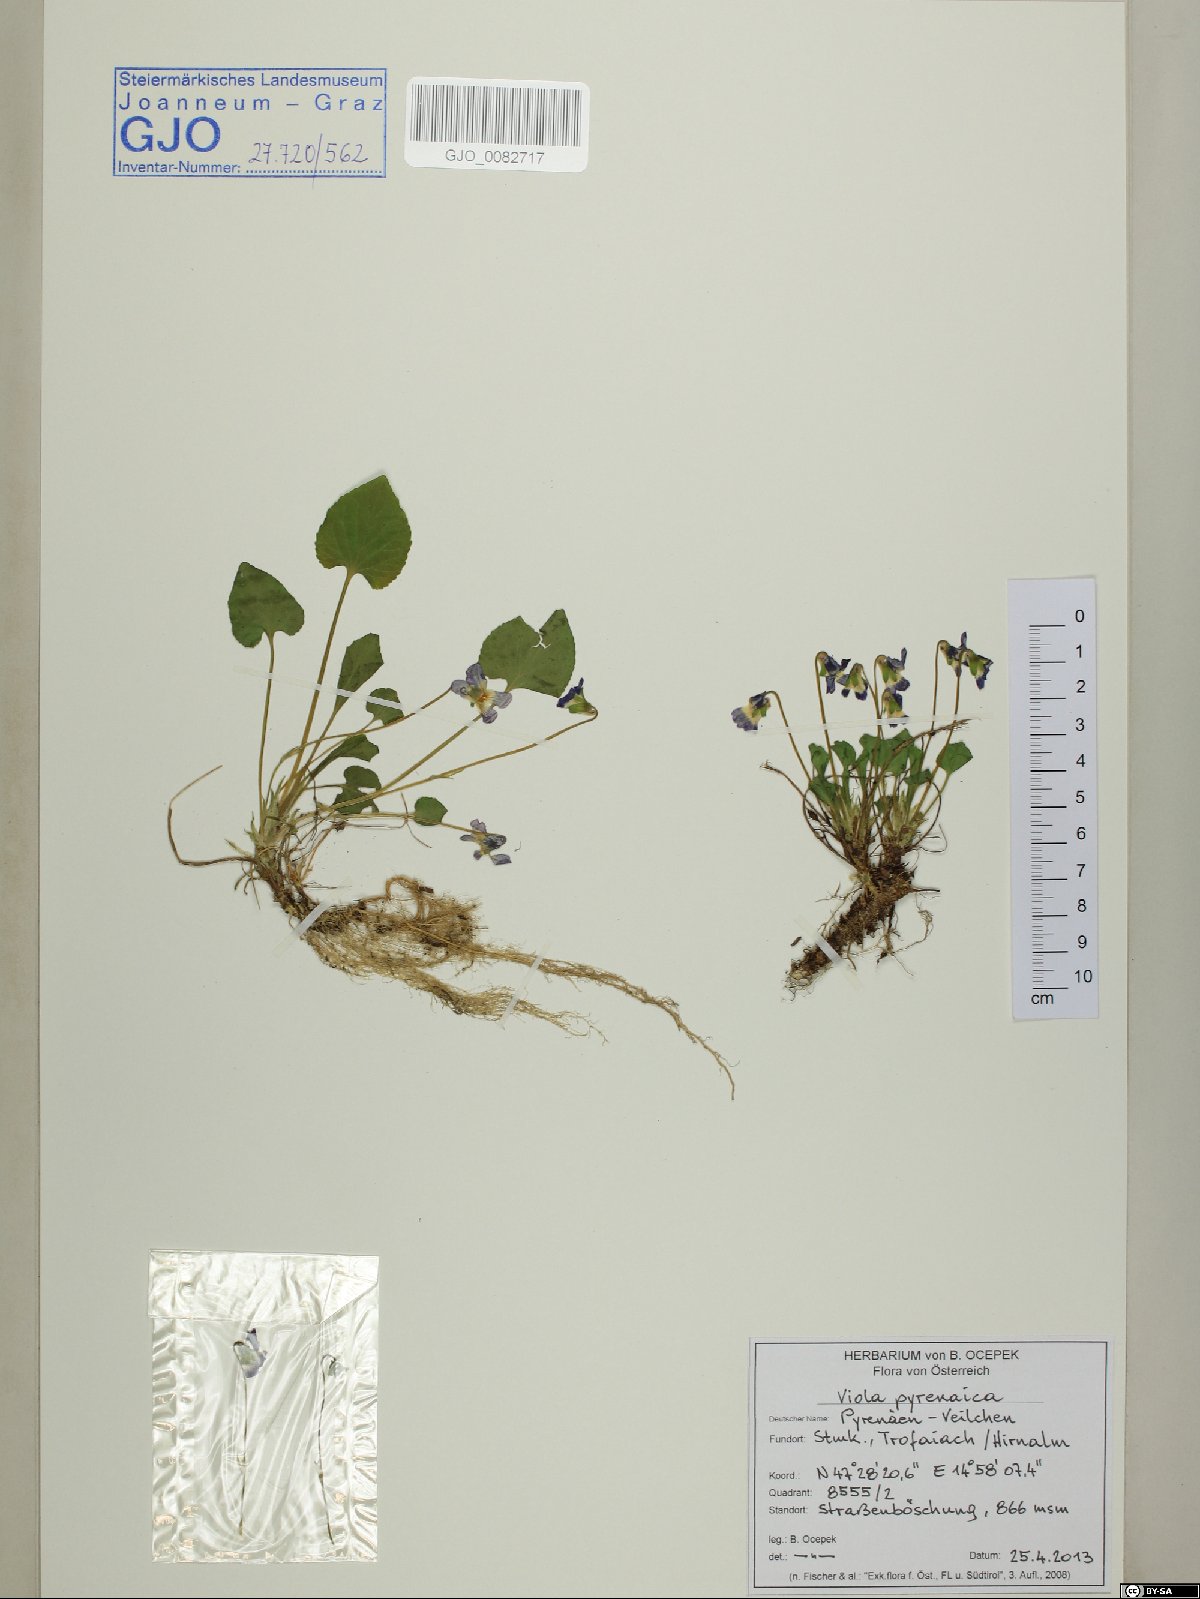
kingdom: Plantae
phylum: Tracheophyta
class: Magnoliopsida
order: Malpighiales
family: Violaceae
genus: Viola
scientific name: Viola pyrenaica
